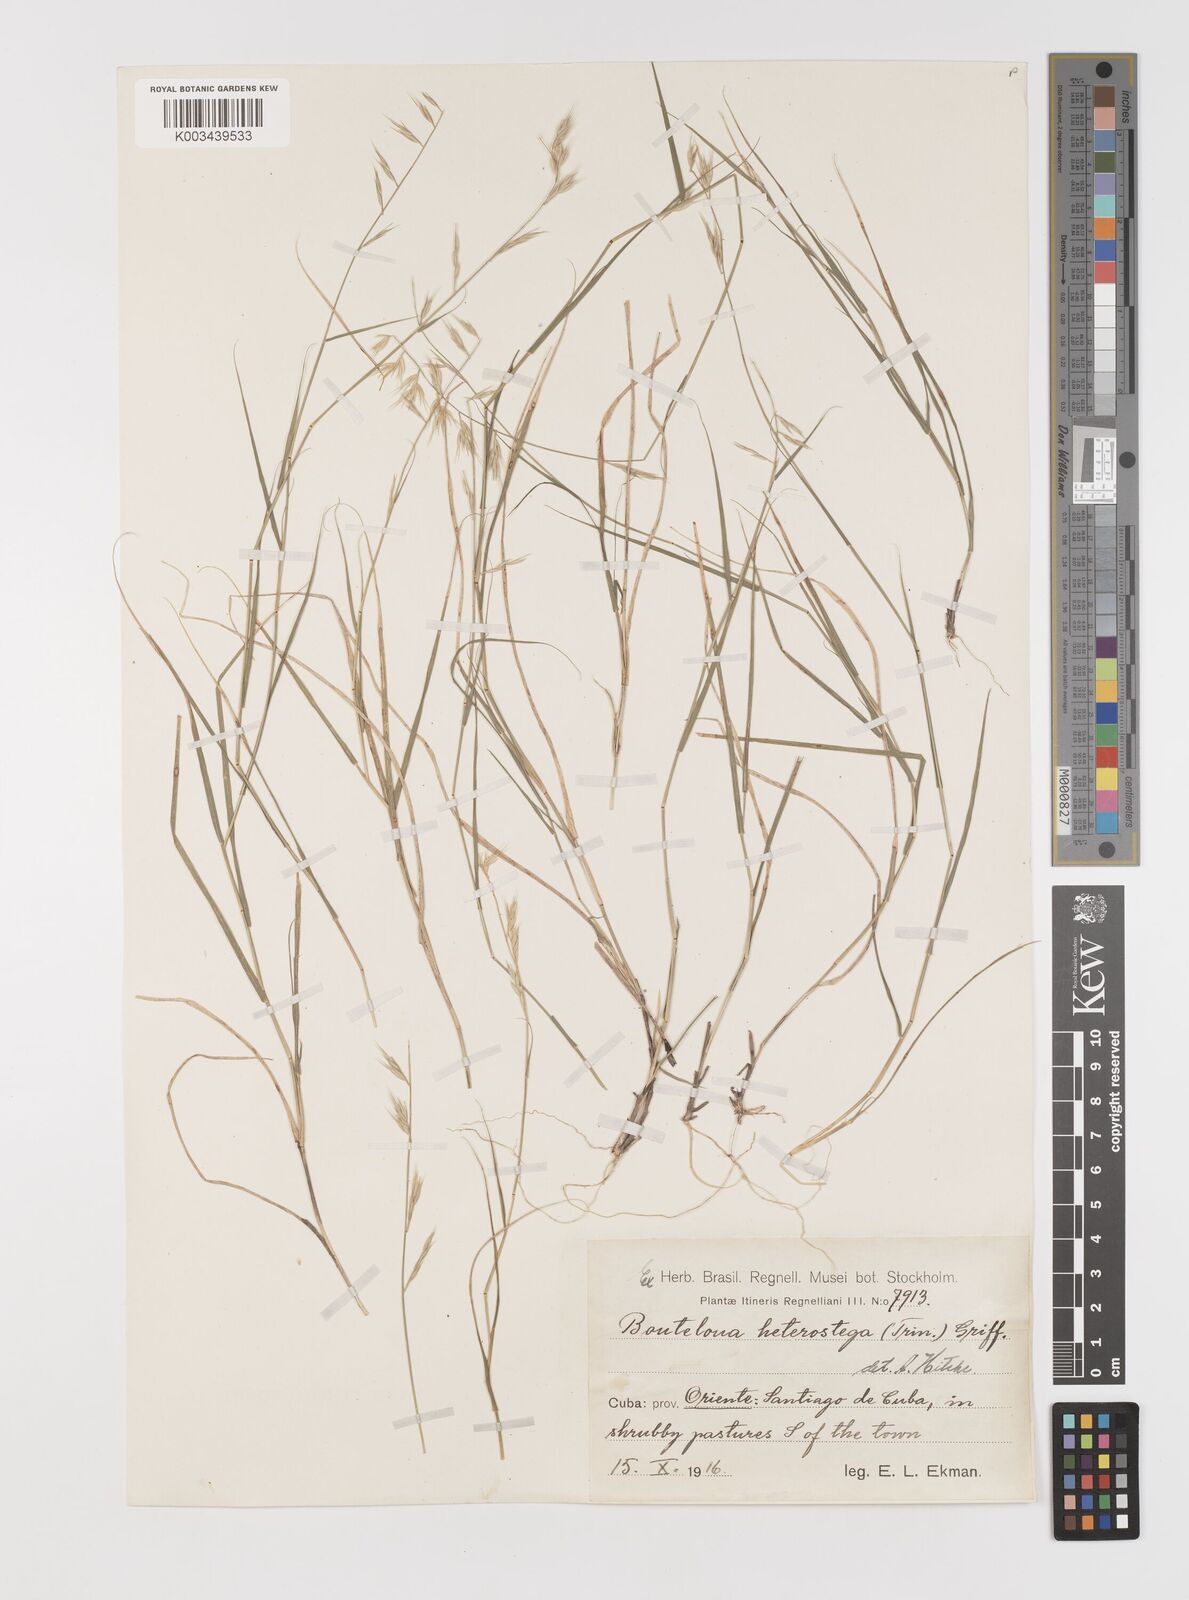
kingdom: Plantae
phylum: Tracheophyta
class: Liliopsida
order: Poales
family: Poaceae
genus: Bouteloua
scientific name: Bouteloua repens
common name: Slender grama
